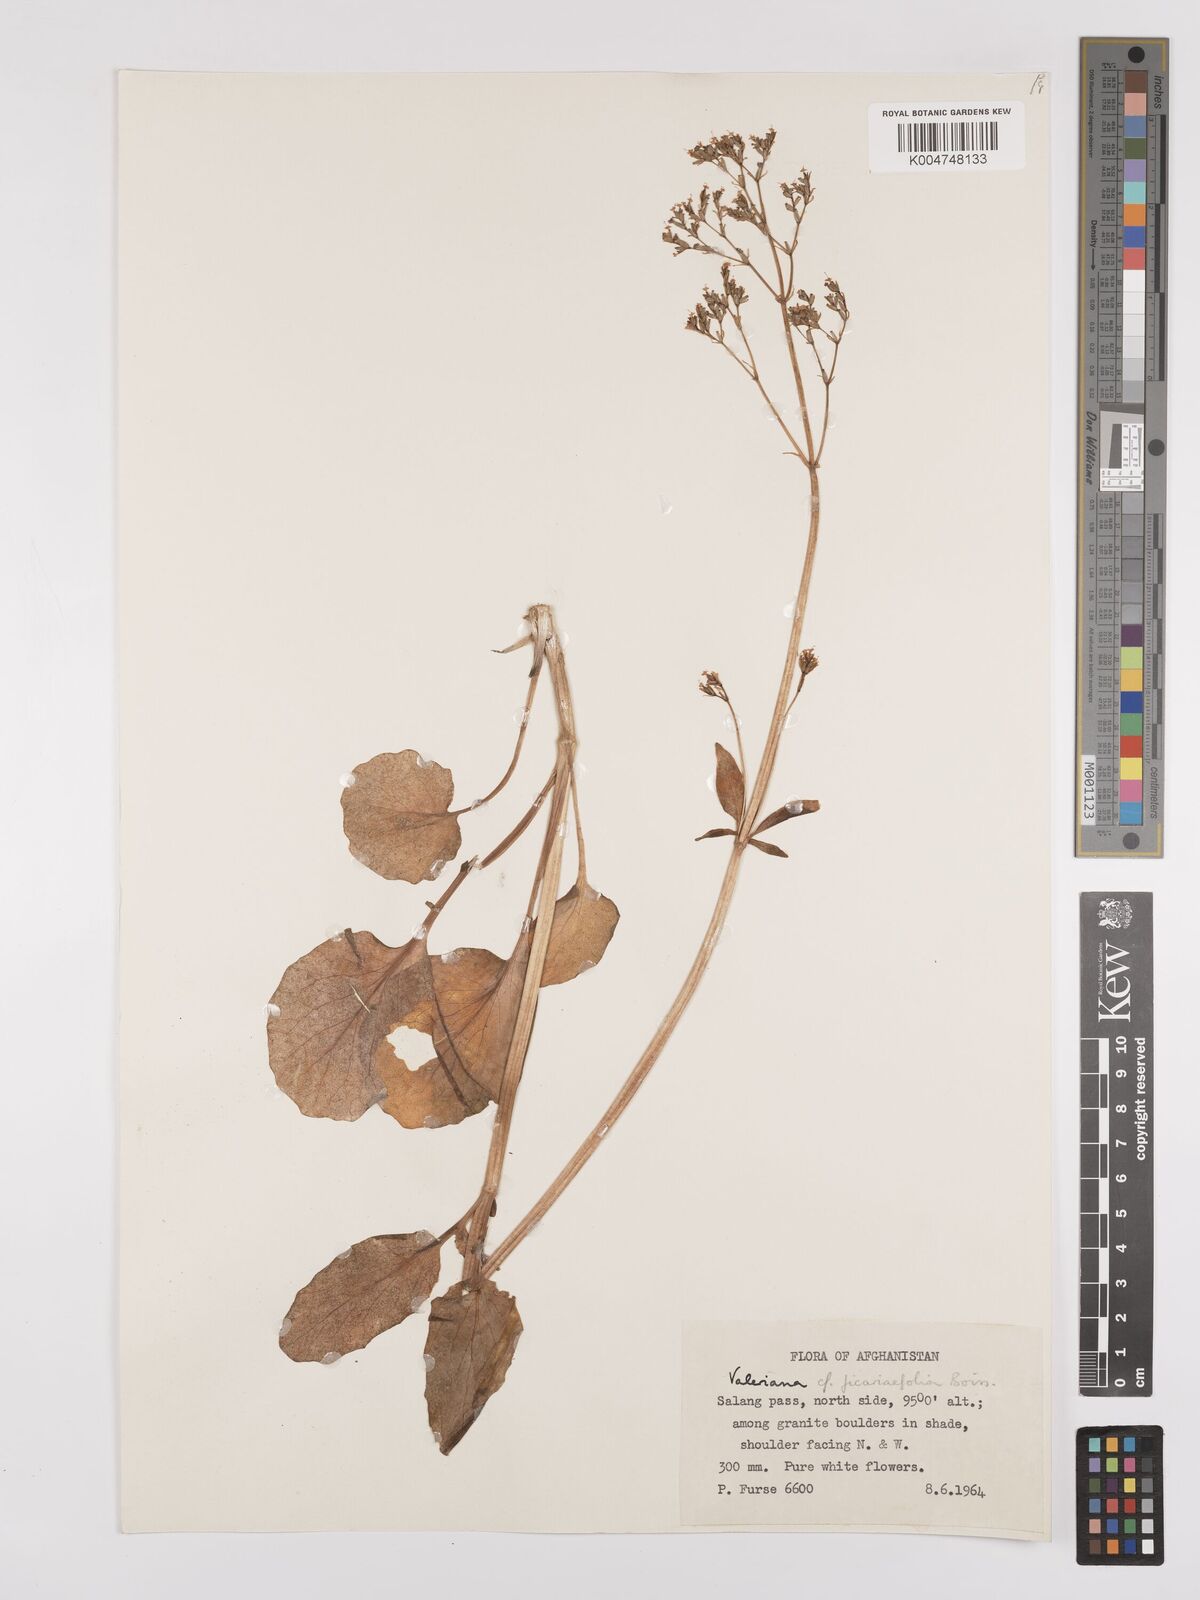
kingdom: Plantae
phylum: Tracheophyta
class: Magnoliopsida
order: Dipsacales
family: Caprifoliaceae
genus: Valeriana
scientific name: Valeriana
